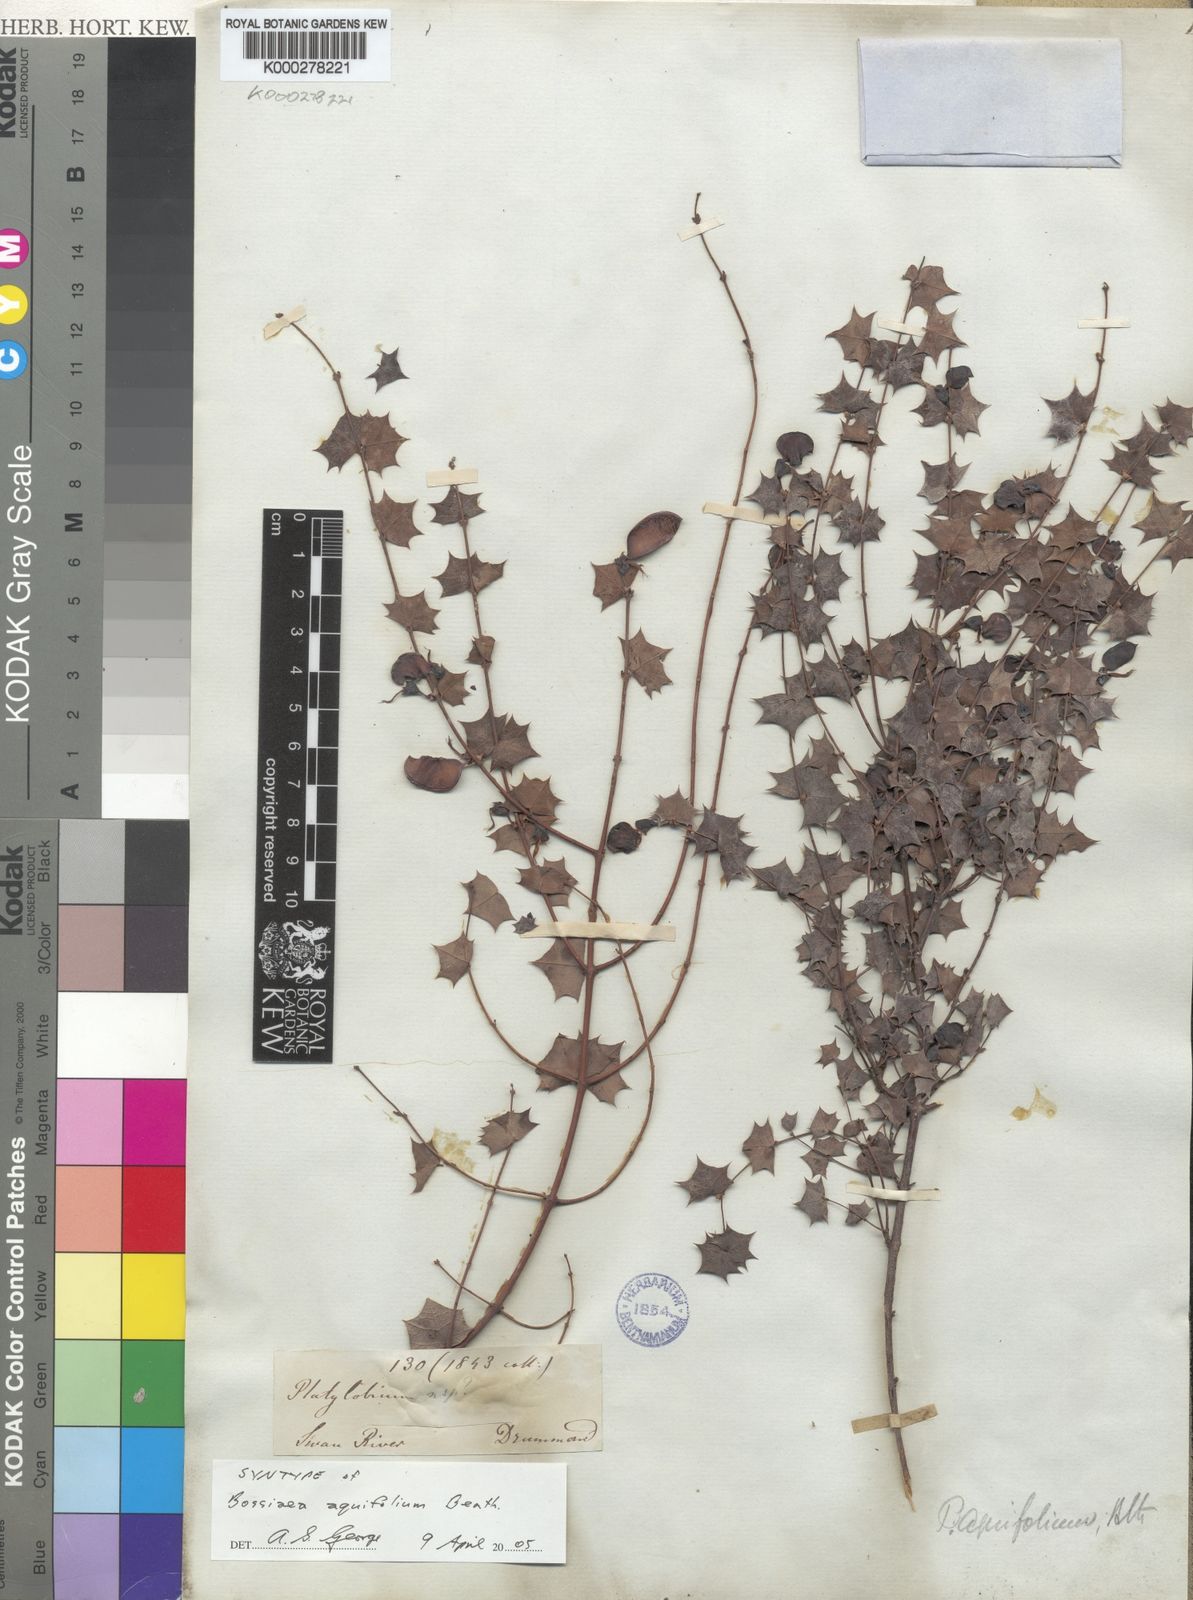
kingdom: Plantae
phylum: Tracheophyta
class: Magnoliopsida
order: Fabales
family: Fabaceae
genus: Bossiaea
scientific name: Bossiaea aquifolium
